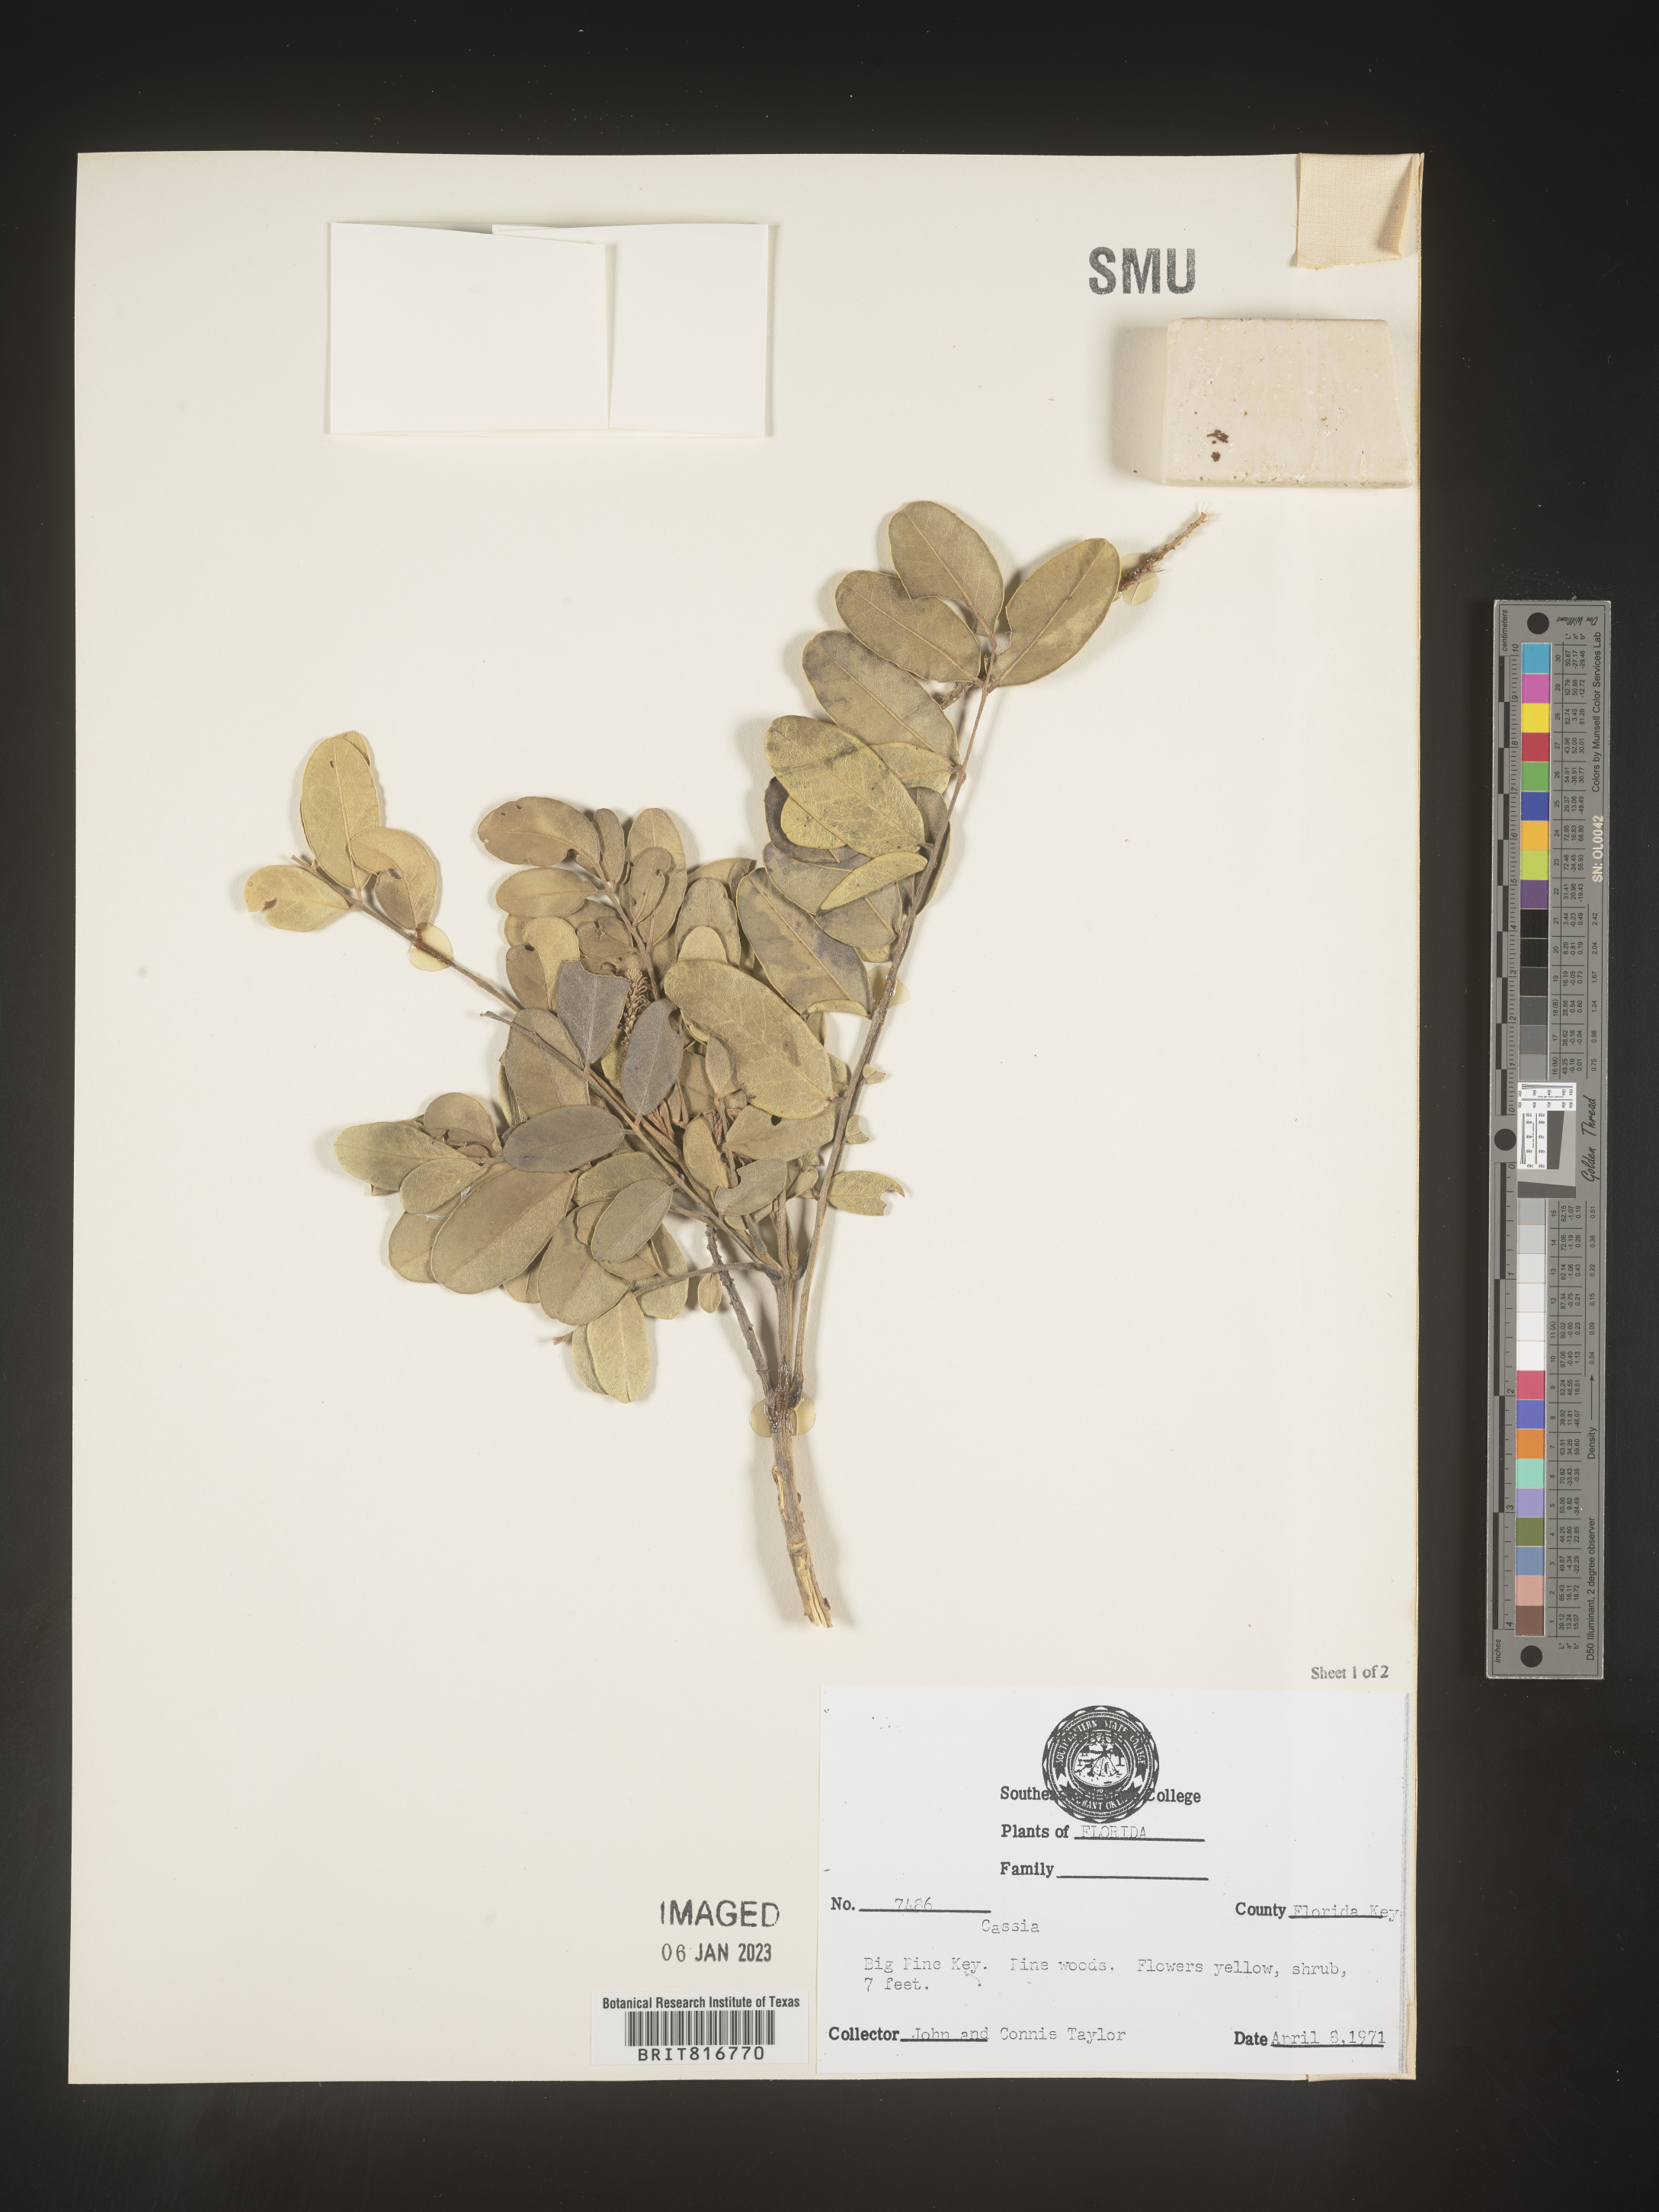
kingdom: Plantae
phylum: Tracheophyta
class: Magnoliopsida
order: Fabales
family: Fabaceae
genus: Cassia
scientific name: Cassia
